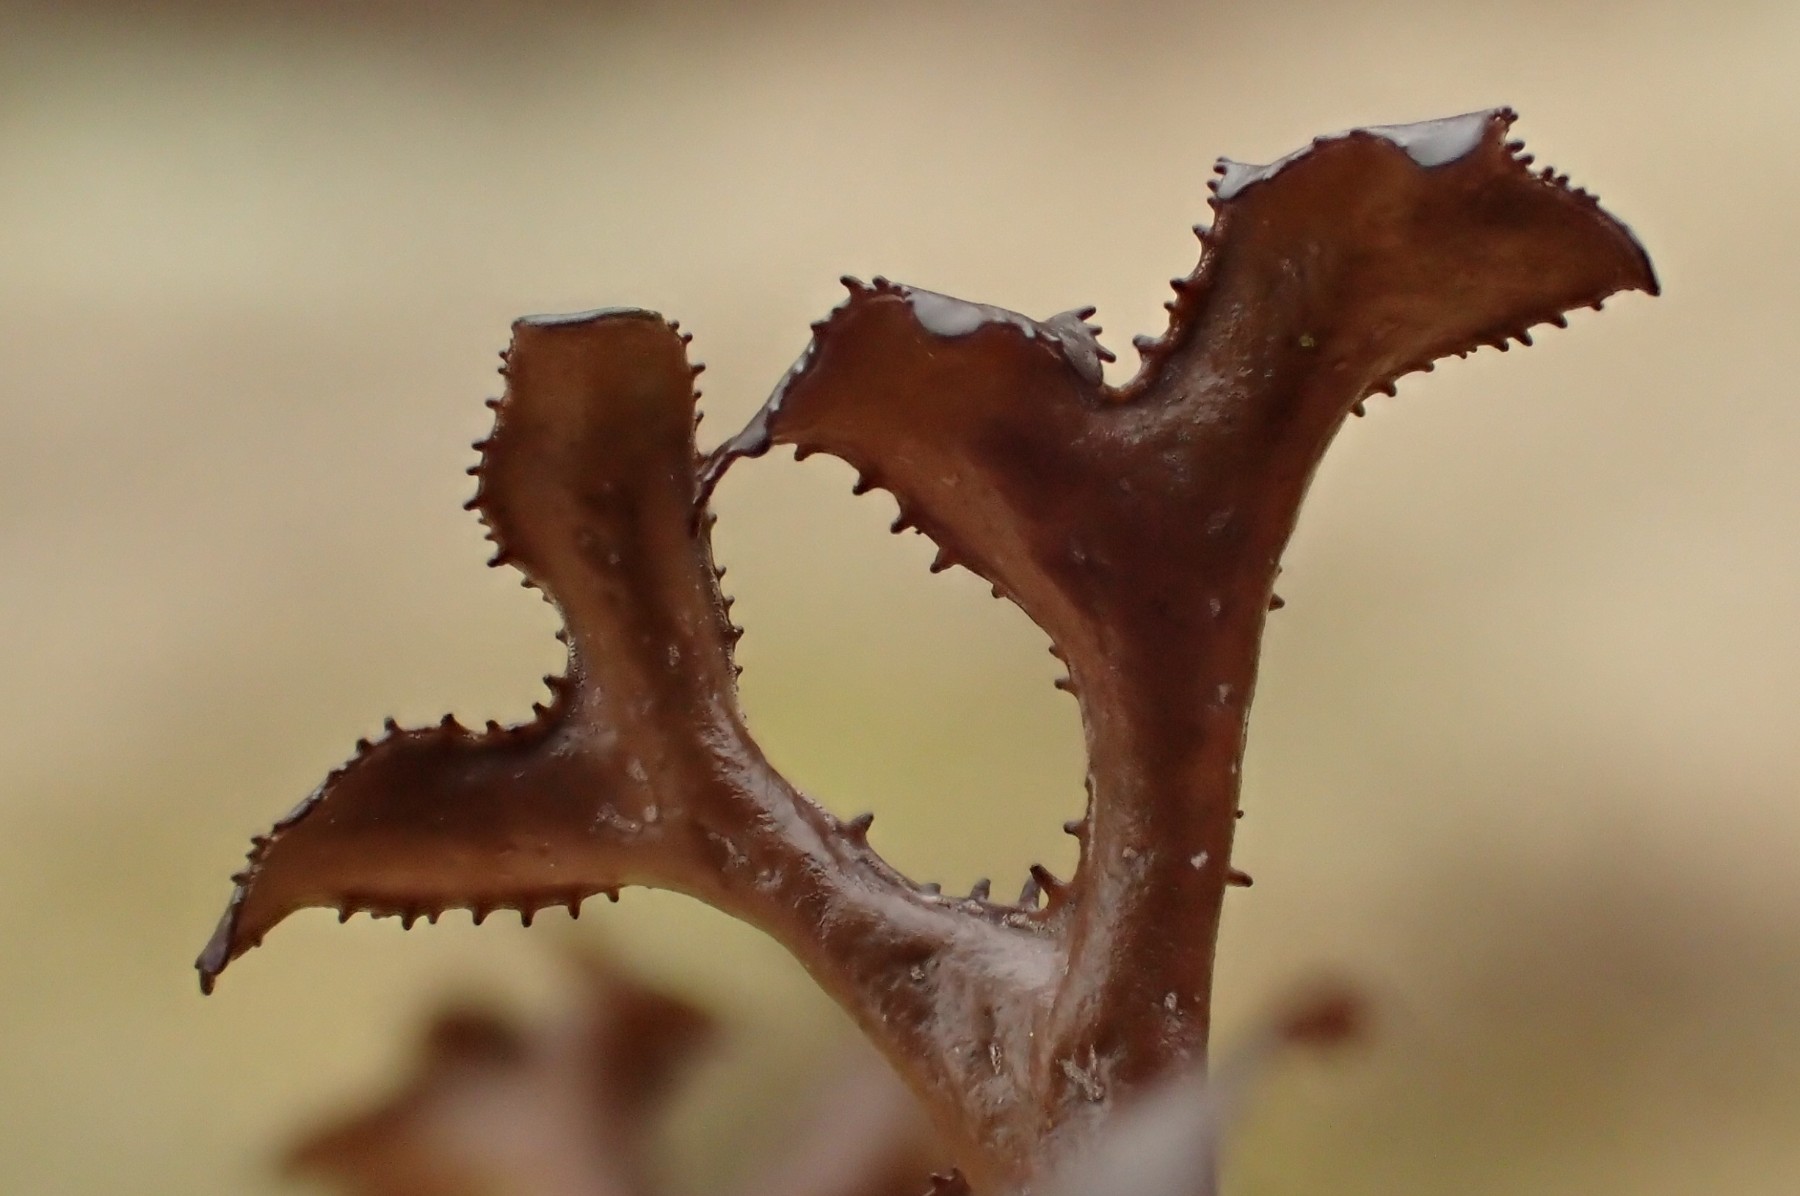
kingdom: Fungi
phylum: Ascomycota
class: Lecanoromycetes
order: Lecanorales
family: Parmeliaceae
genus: Cetraria
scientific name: Cetraria islandica
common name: islandsk kruslav
